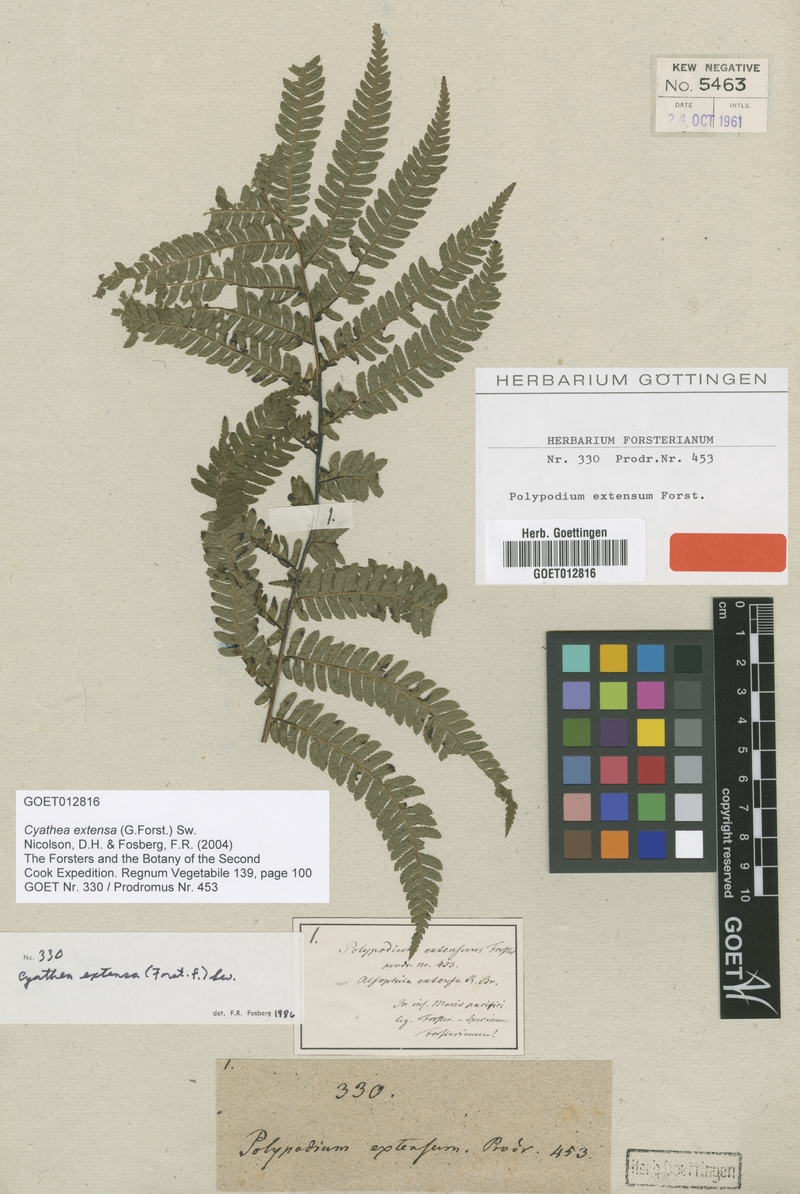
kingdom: Plantae
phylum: Tracheophyta
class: Polypodiopsida
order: Cyatheales
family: Cyatheaceae
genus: Sphaeropteris
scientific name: Sphaeropteris lunulata
